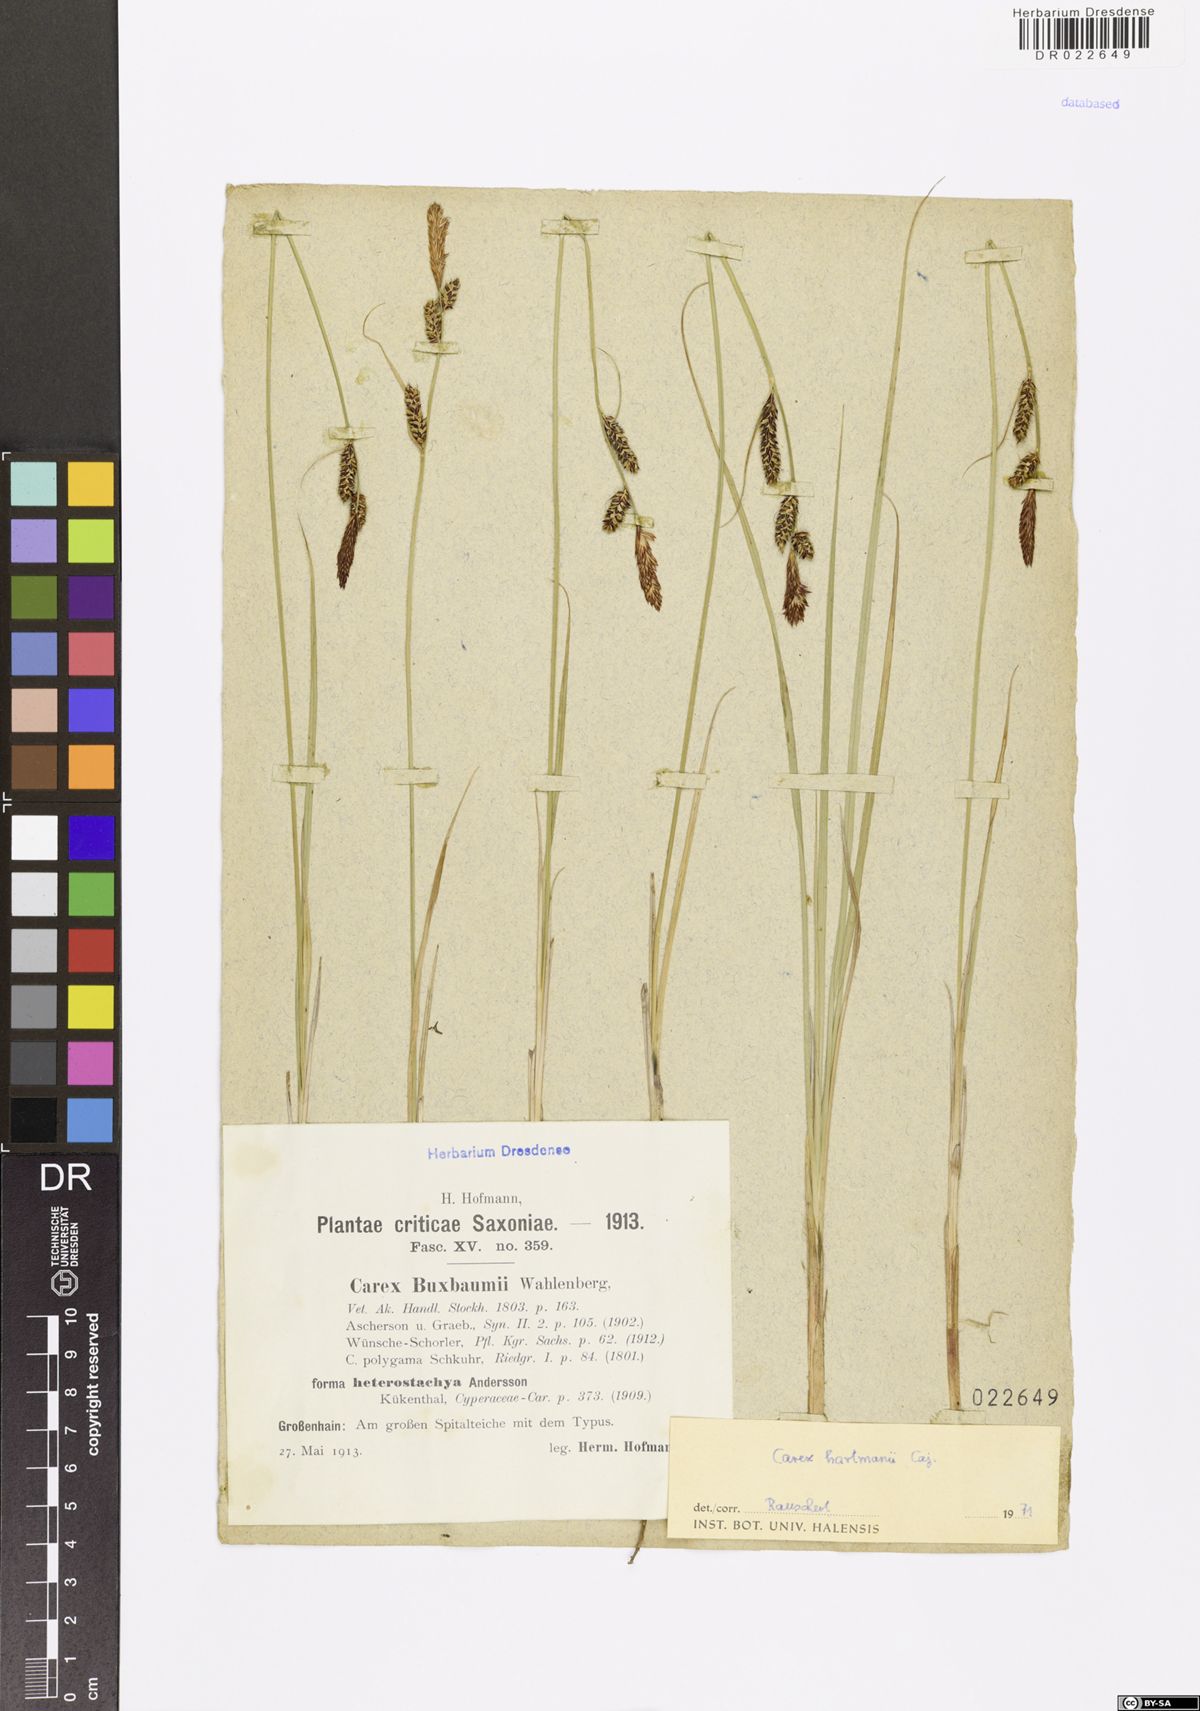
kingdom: Plantae
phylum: Tracheophyta
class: Liliopsida
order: Poales
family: Cyperaceae
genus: Carex
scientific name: Carex hartmaniorum
